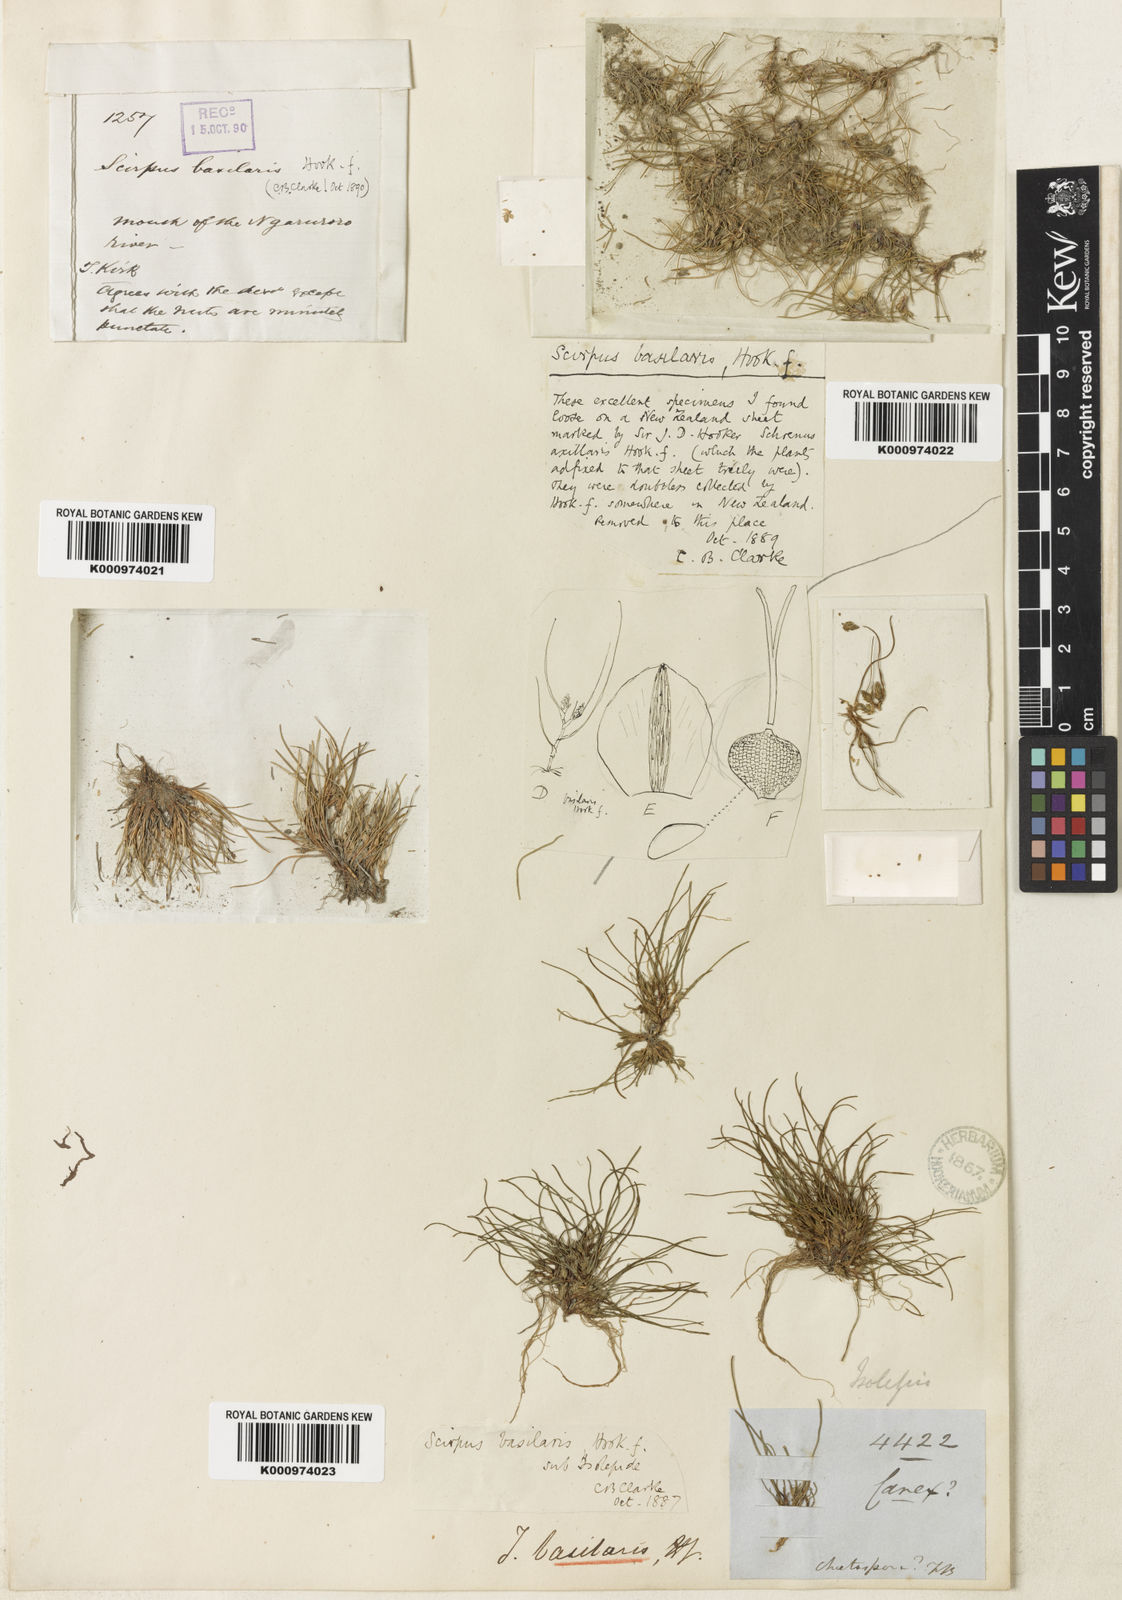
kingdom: Plantae
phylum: Tracheophyta
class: Liliopsida
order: Poales
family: Cyperaceae
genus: Isolepis
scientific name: Isolepis basilaris
